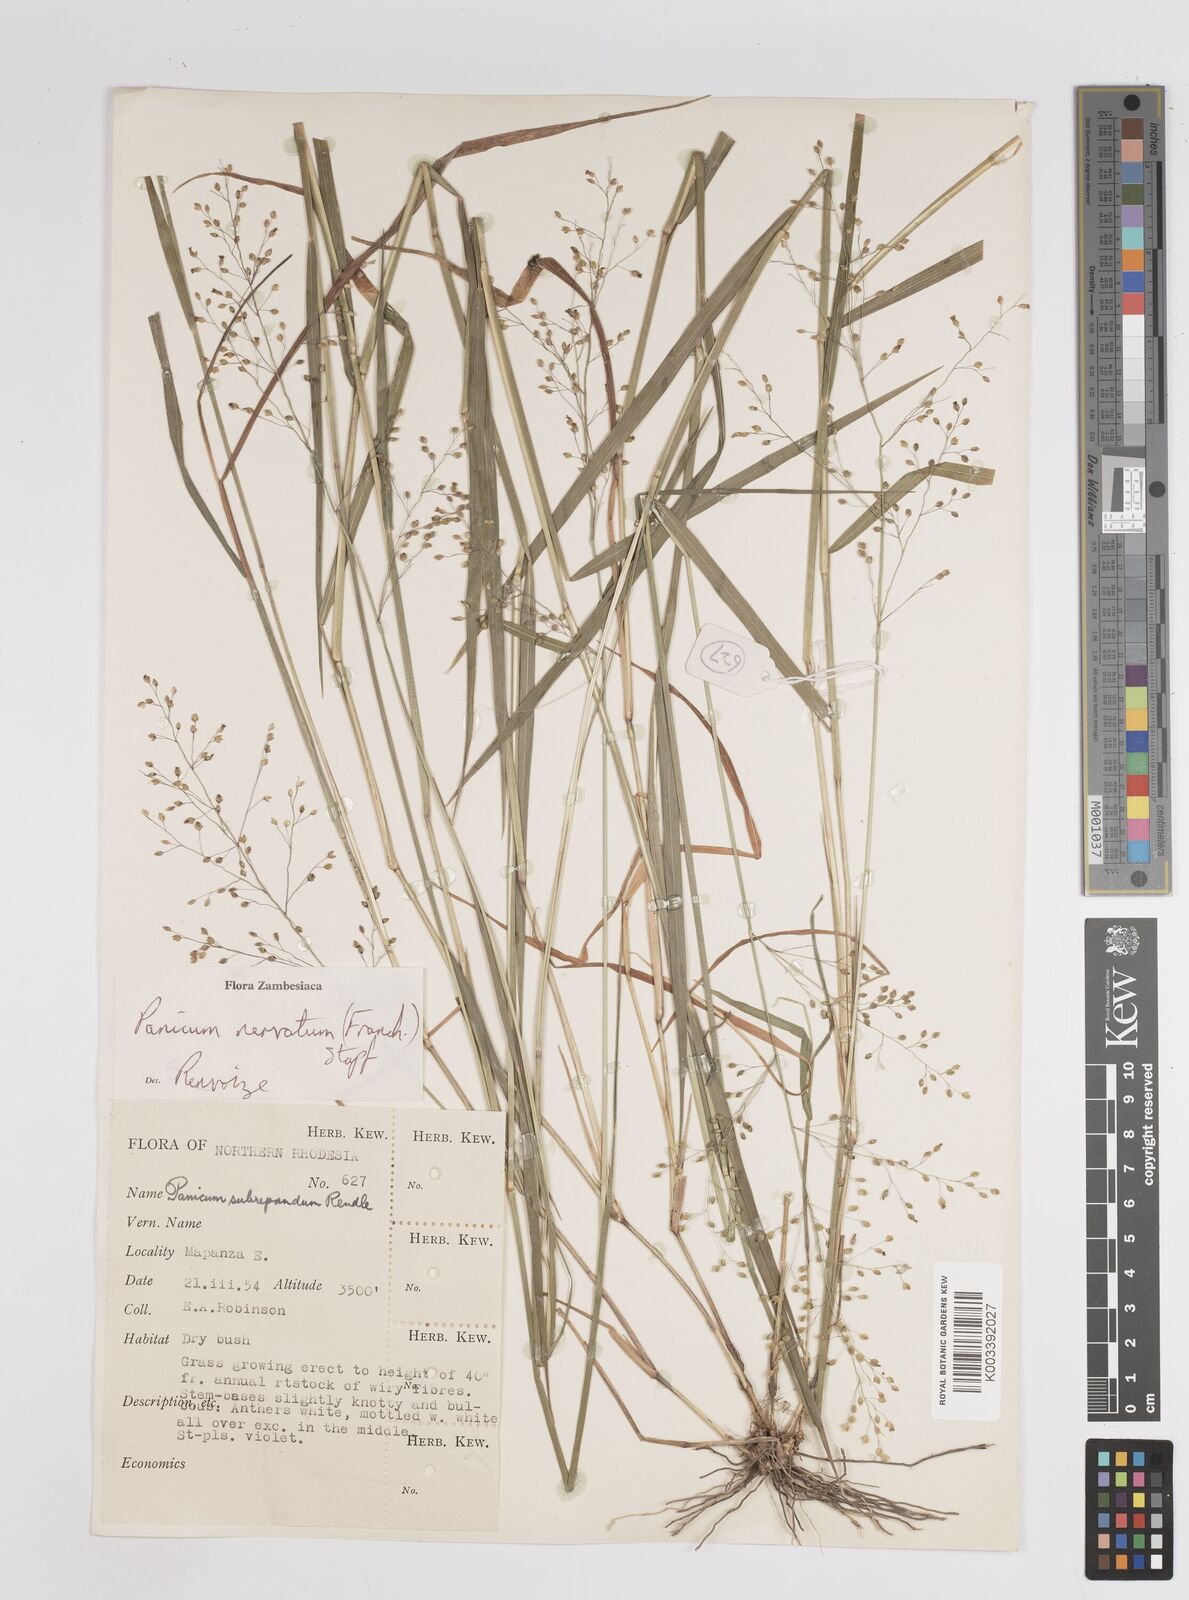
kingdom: Plantae
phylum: Tracheophyta
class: Liliopsida
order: Poales
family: Poaceae
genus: Trichanthecium
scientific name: Trichanthecium nervatum
